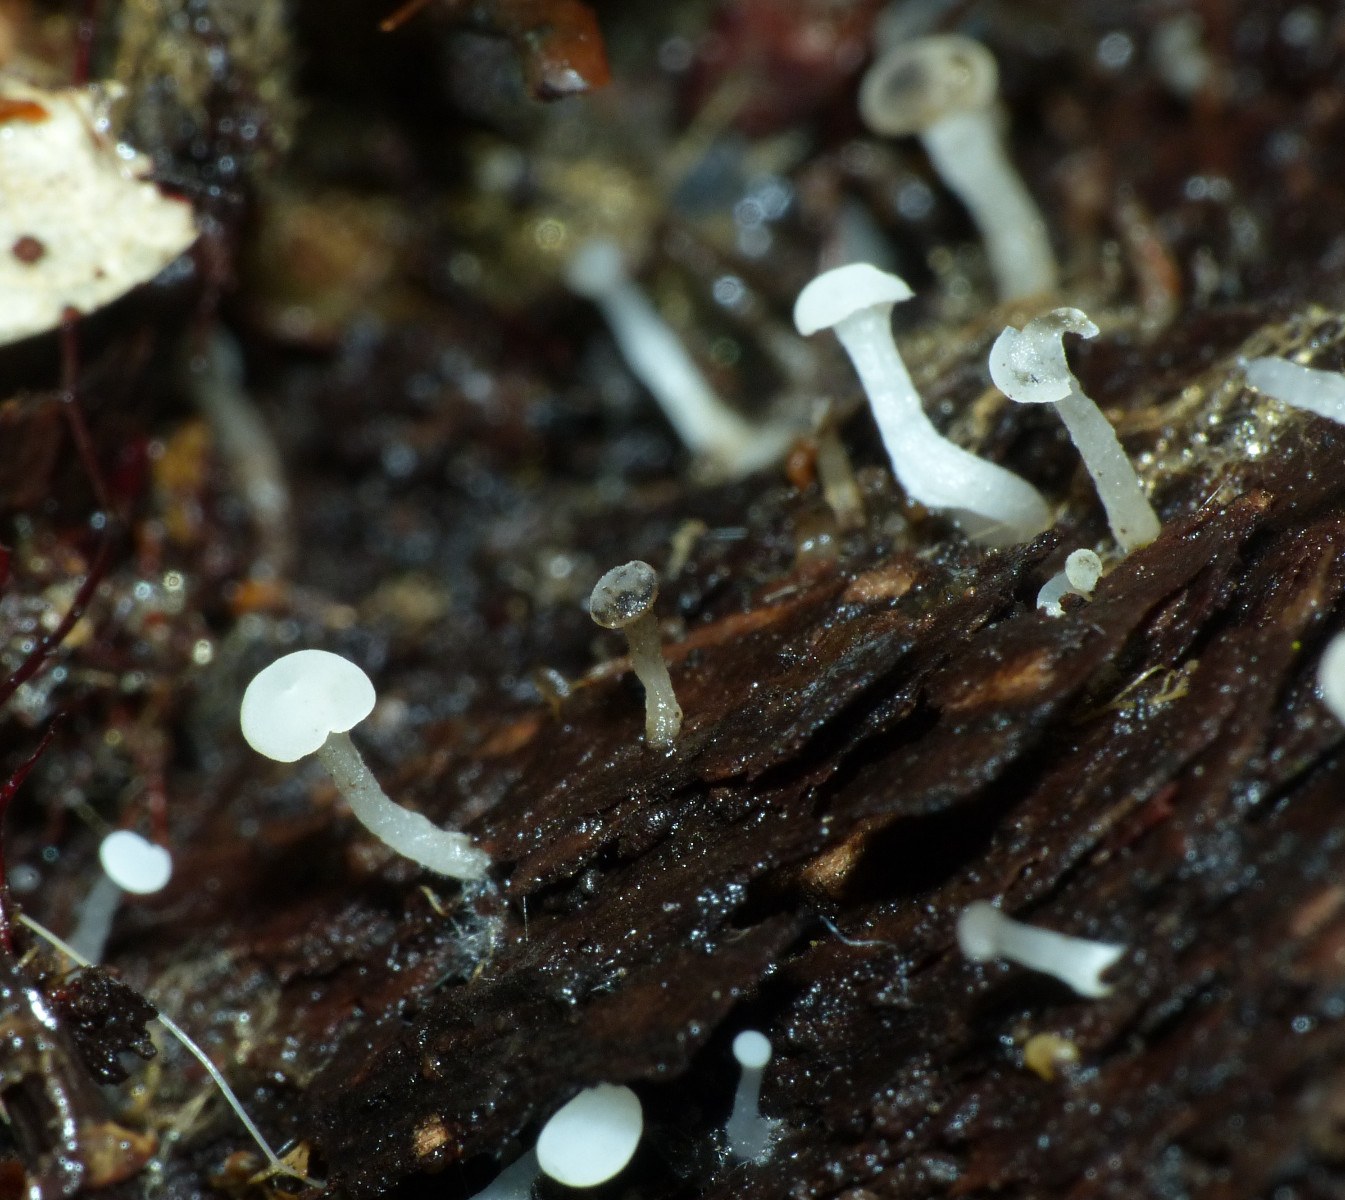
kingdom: Fungi
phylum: Ascomycota
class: Leotiomycetes
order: Helotiales
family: Tricladiaceae
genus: Cudoniella
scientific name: Cudoniella acicularis
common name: ege-dyndskive
